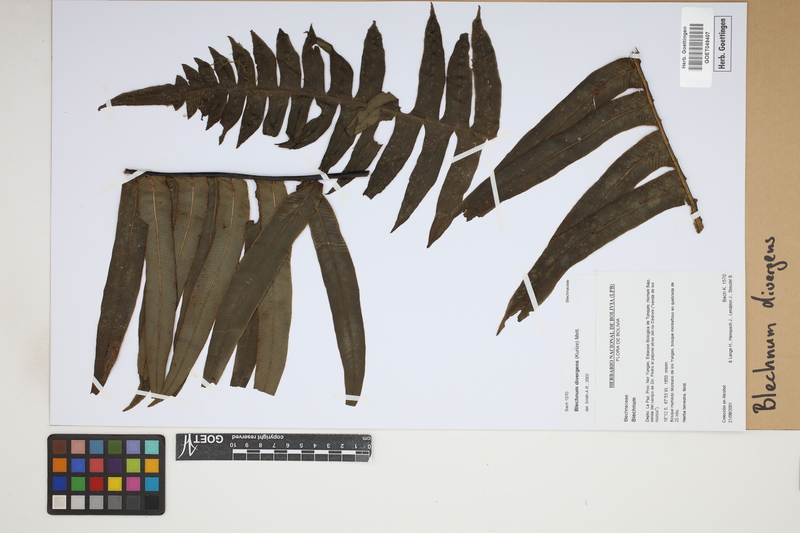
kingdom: Plantae
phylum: Tracheophyta
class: Polypodiopsida
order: Polypodiales
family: Blechnaceae
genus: Austroblechnum
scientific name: Austroblechnum divergens
